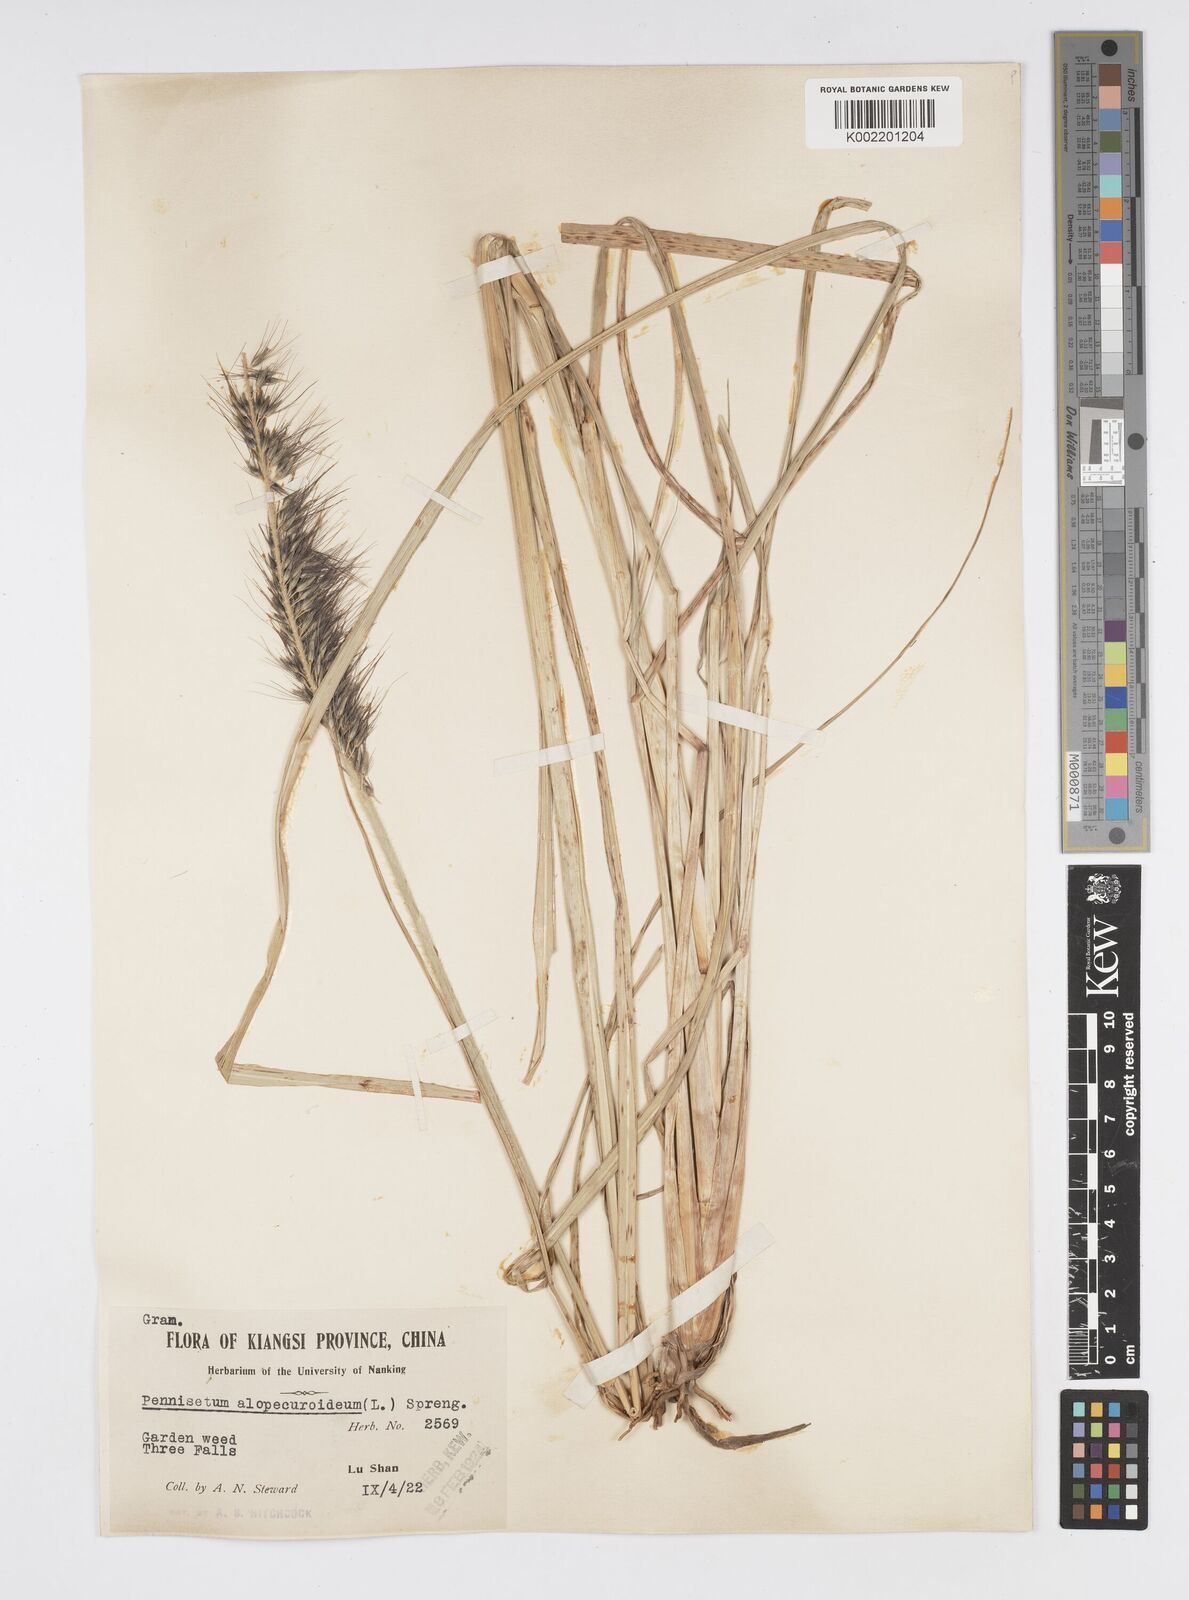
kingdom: Plantae
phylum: Tracheophyta
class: Liliopsida
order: Poales
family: Poaceae
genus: Cenchrus
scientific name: Cenchrus alopecuroides
